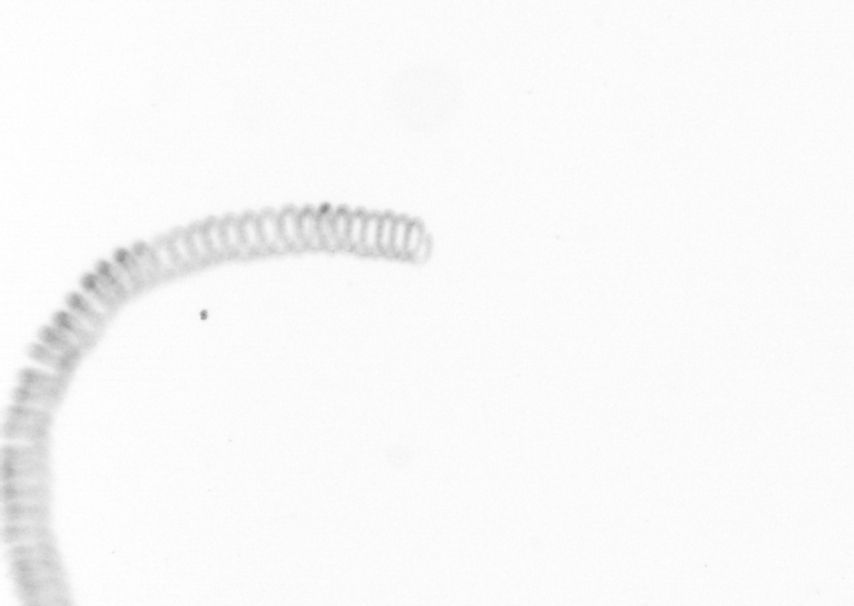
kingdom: Chromista
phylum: Ochrophyta
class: Bacillariophyceae
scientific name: Bacillariophyceae
